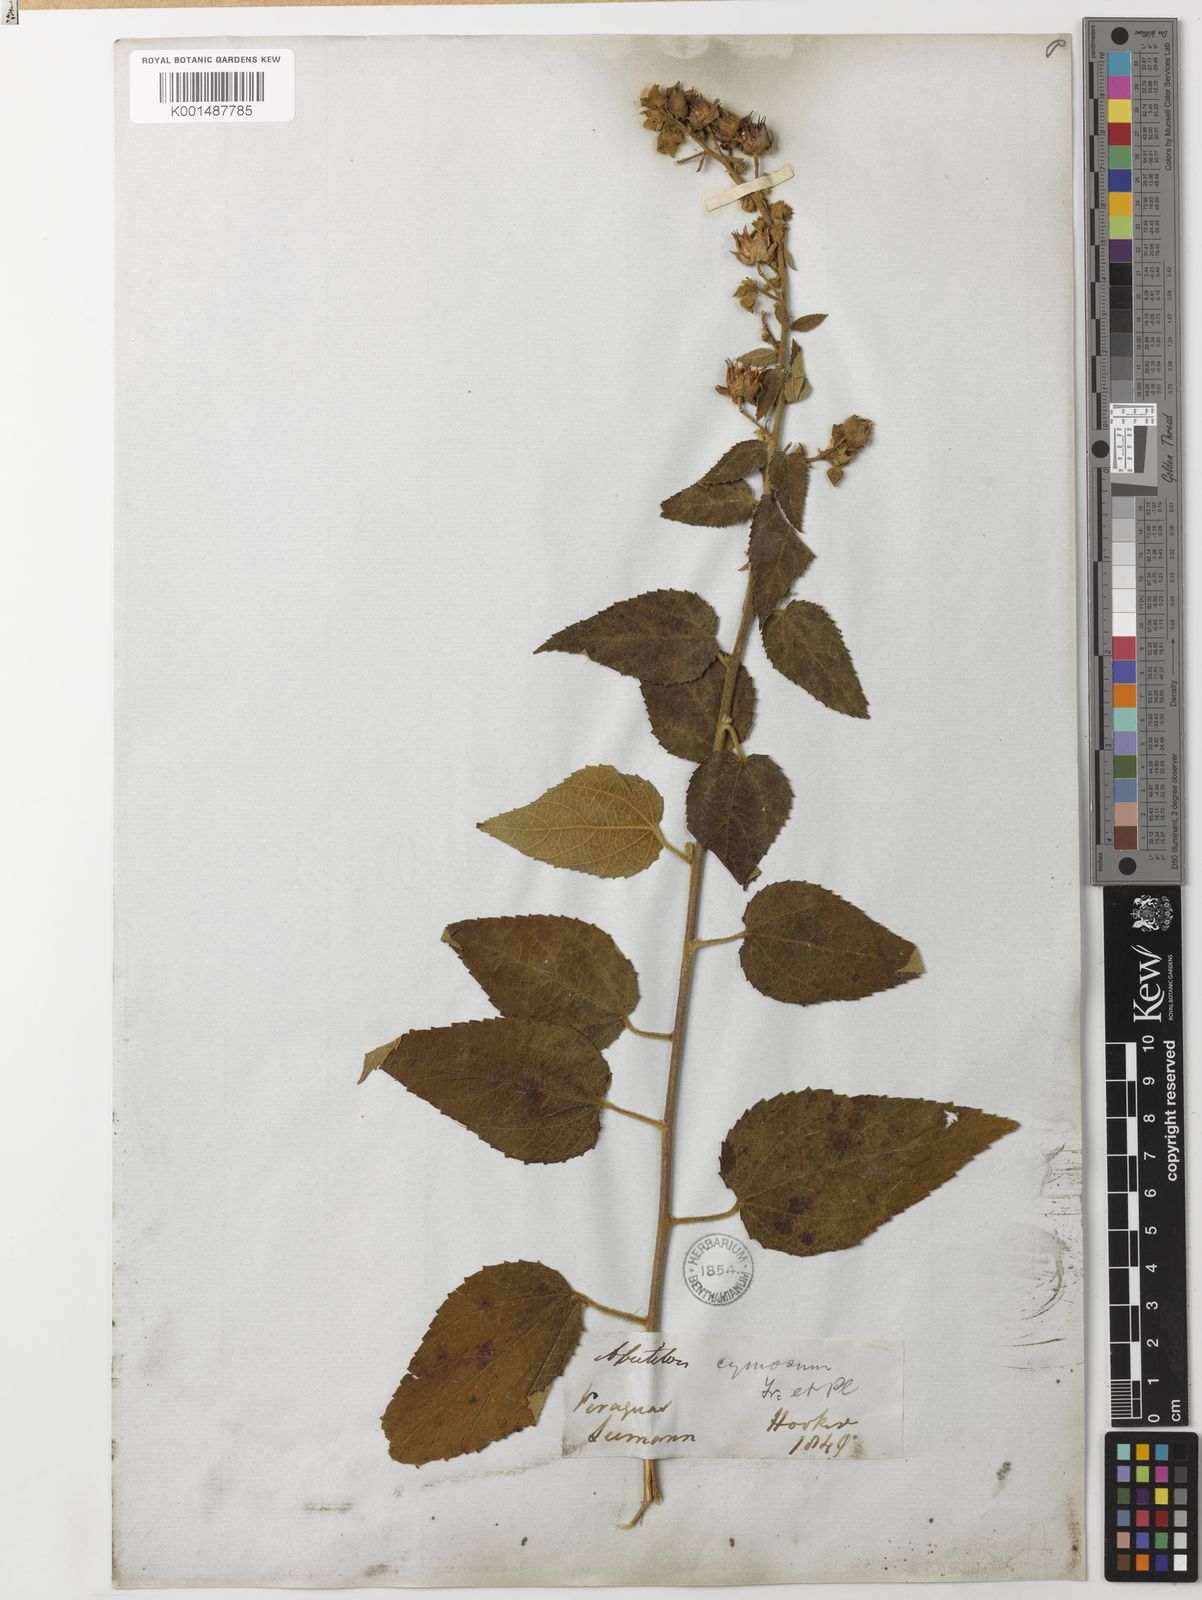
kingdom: Plantae
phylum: Tracheophyta
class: Magnoliopsida
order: Malvales
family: Malvaceae
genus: Pseudabutilon
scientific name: Pseudabutilon cymosum
